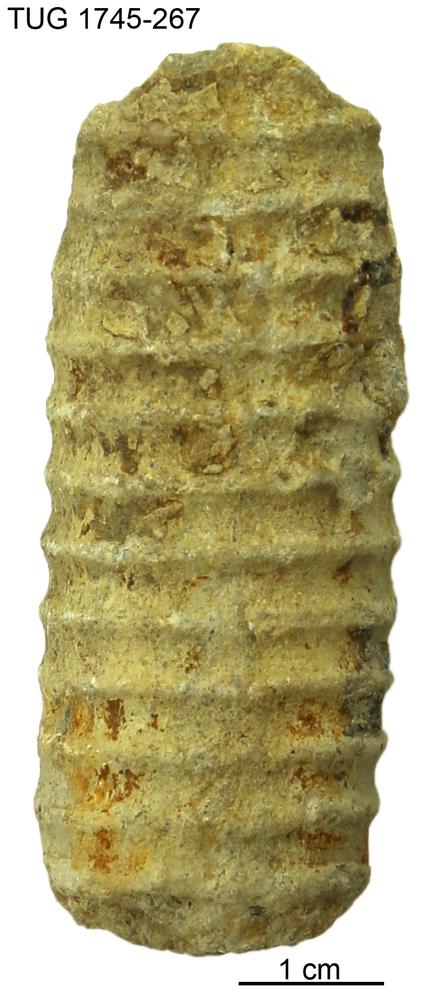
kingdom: Animalia
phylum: Mollusca
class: Cephalopoda
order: Orthocerida
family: Dawsonoceratidae
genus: Palaeodawsonocerina
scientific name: Palaeodawsonocerina Spyroceras senckenbergi
